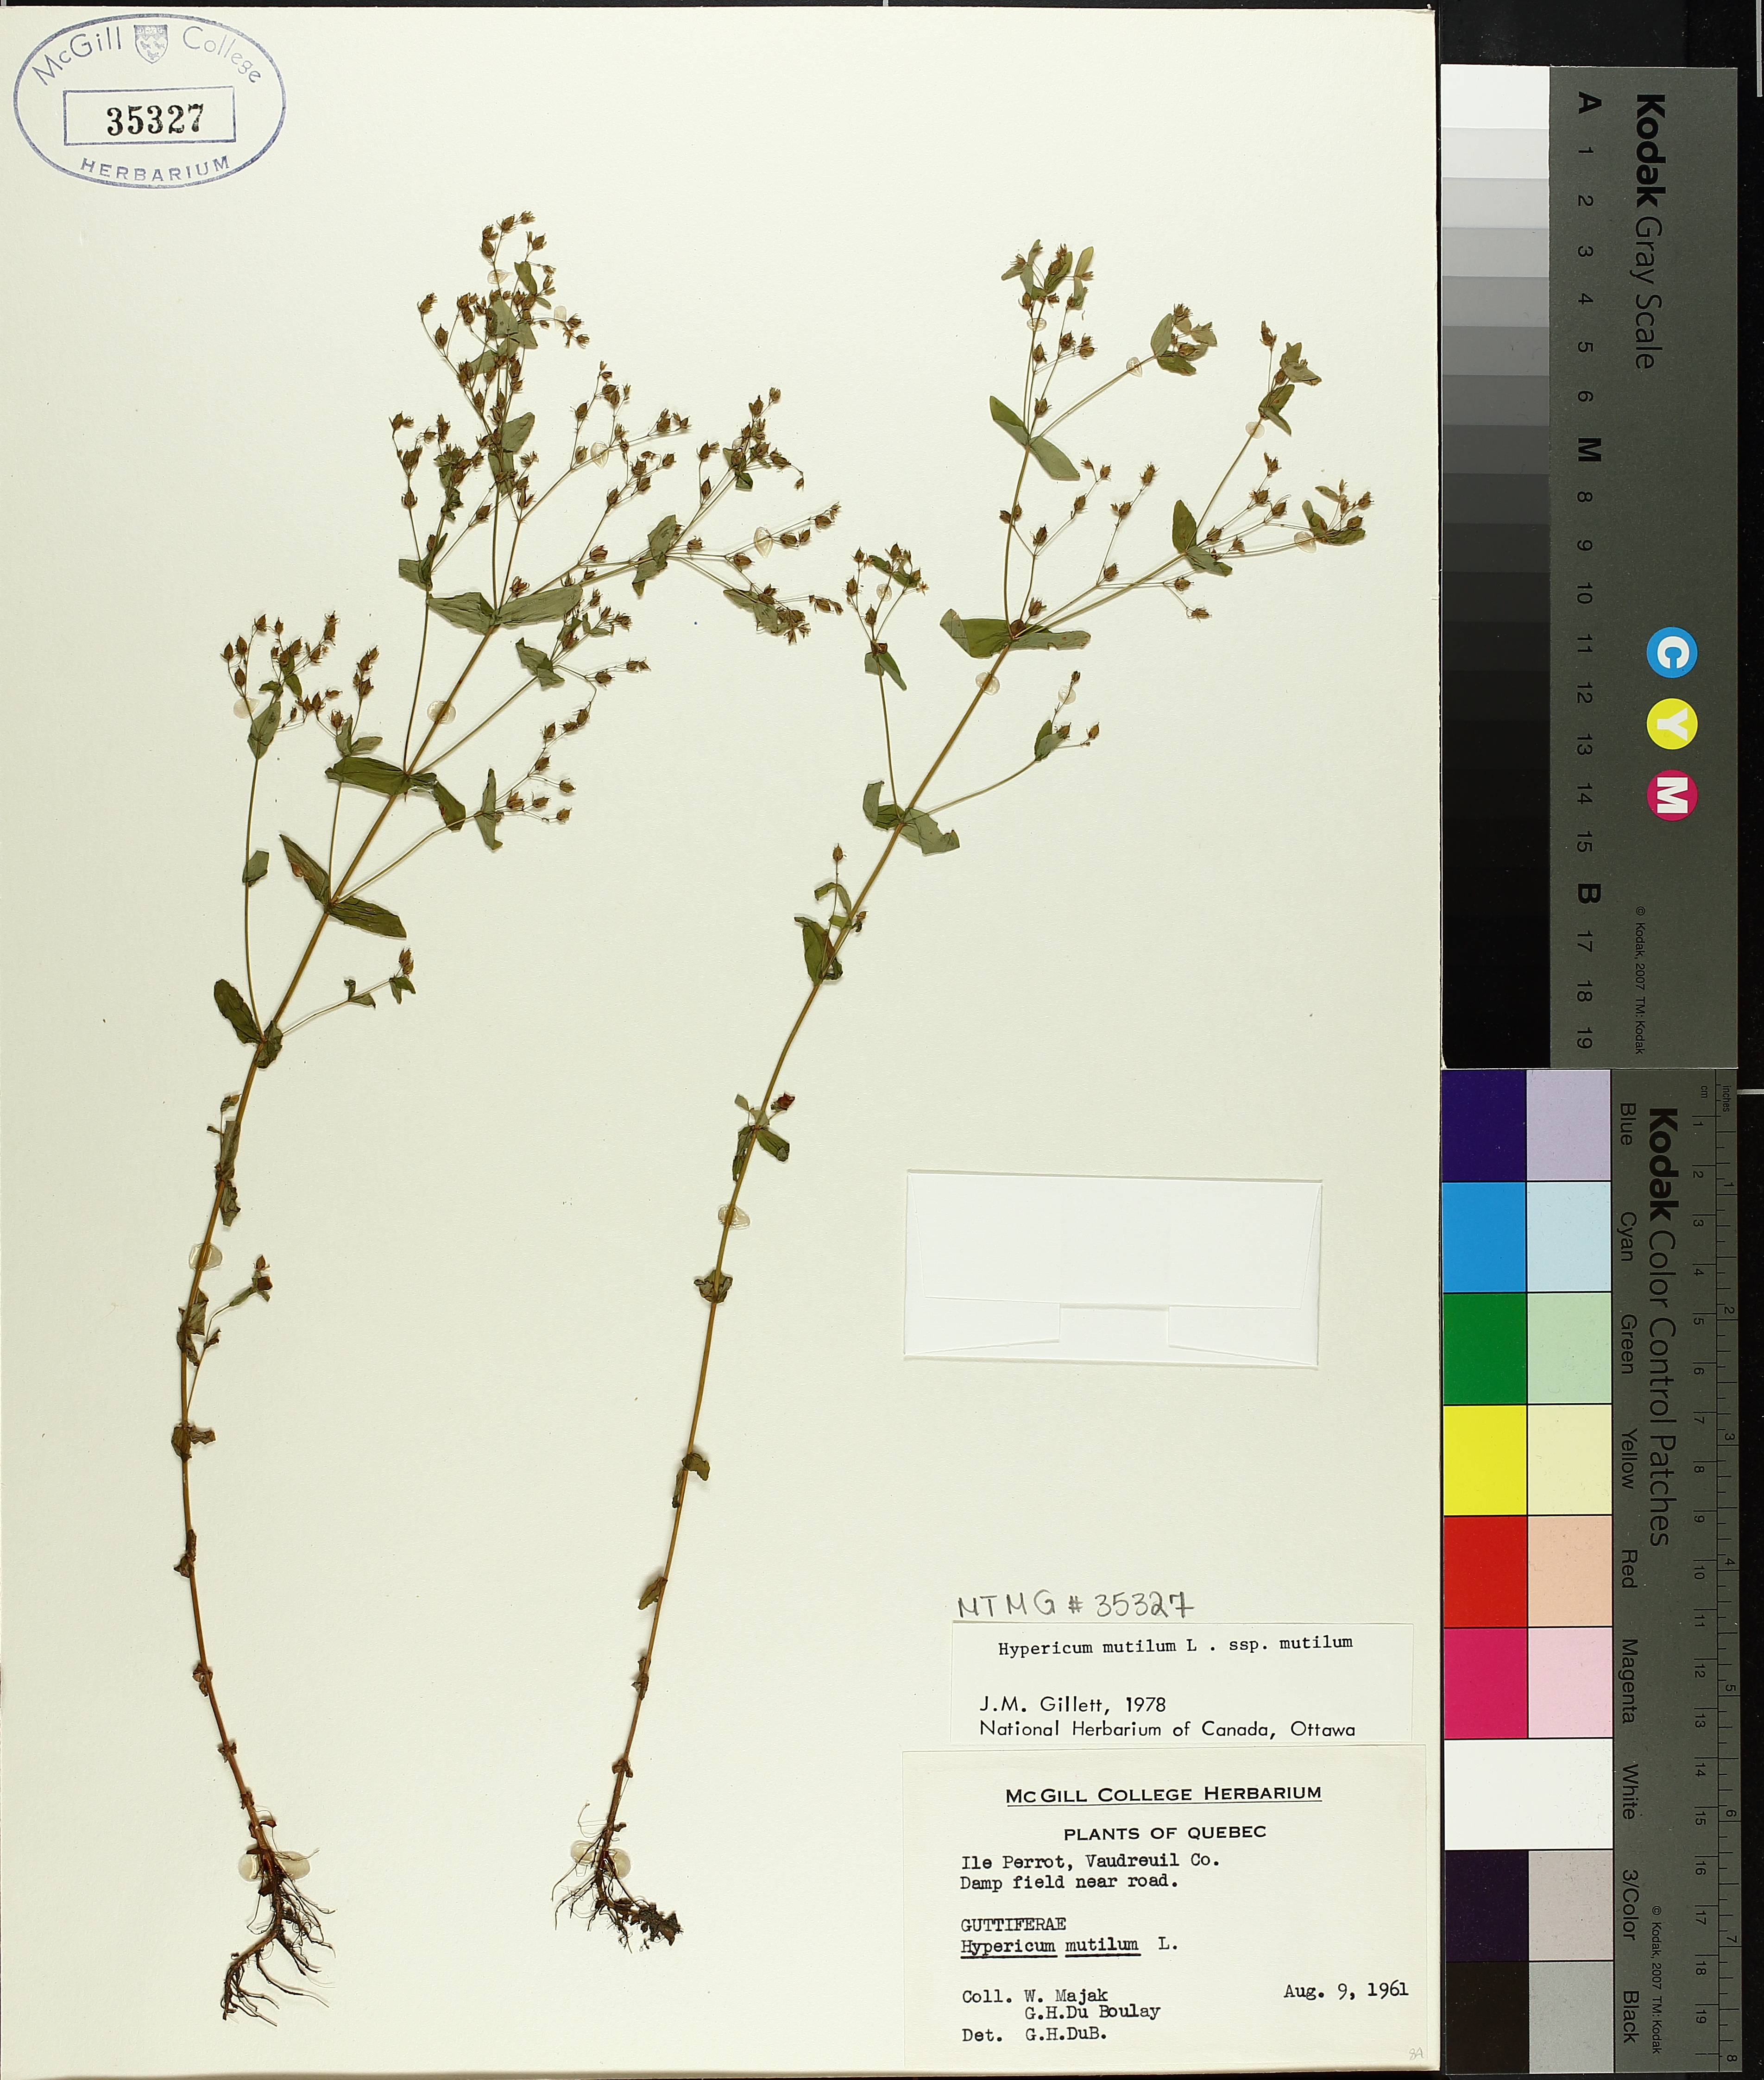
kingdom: Plantae
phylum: Tracheophyta
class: Magnoliopsida
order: Malpighiales
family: Hypericaceae
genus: Hypericum
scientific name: Hypericum mutilum
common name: Dwarf st. john's-wort
